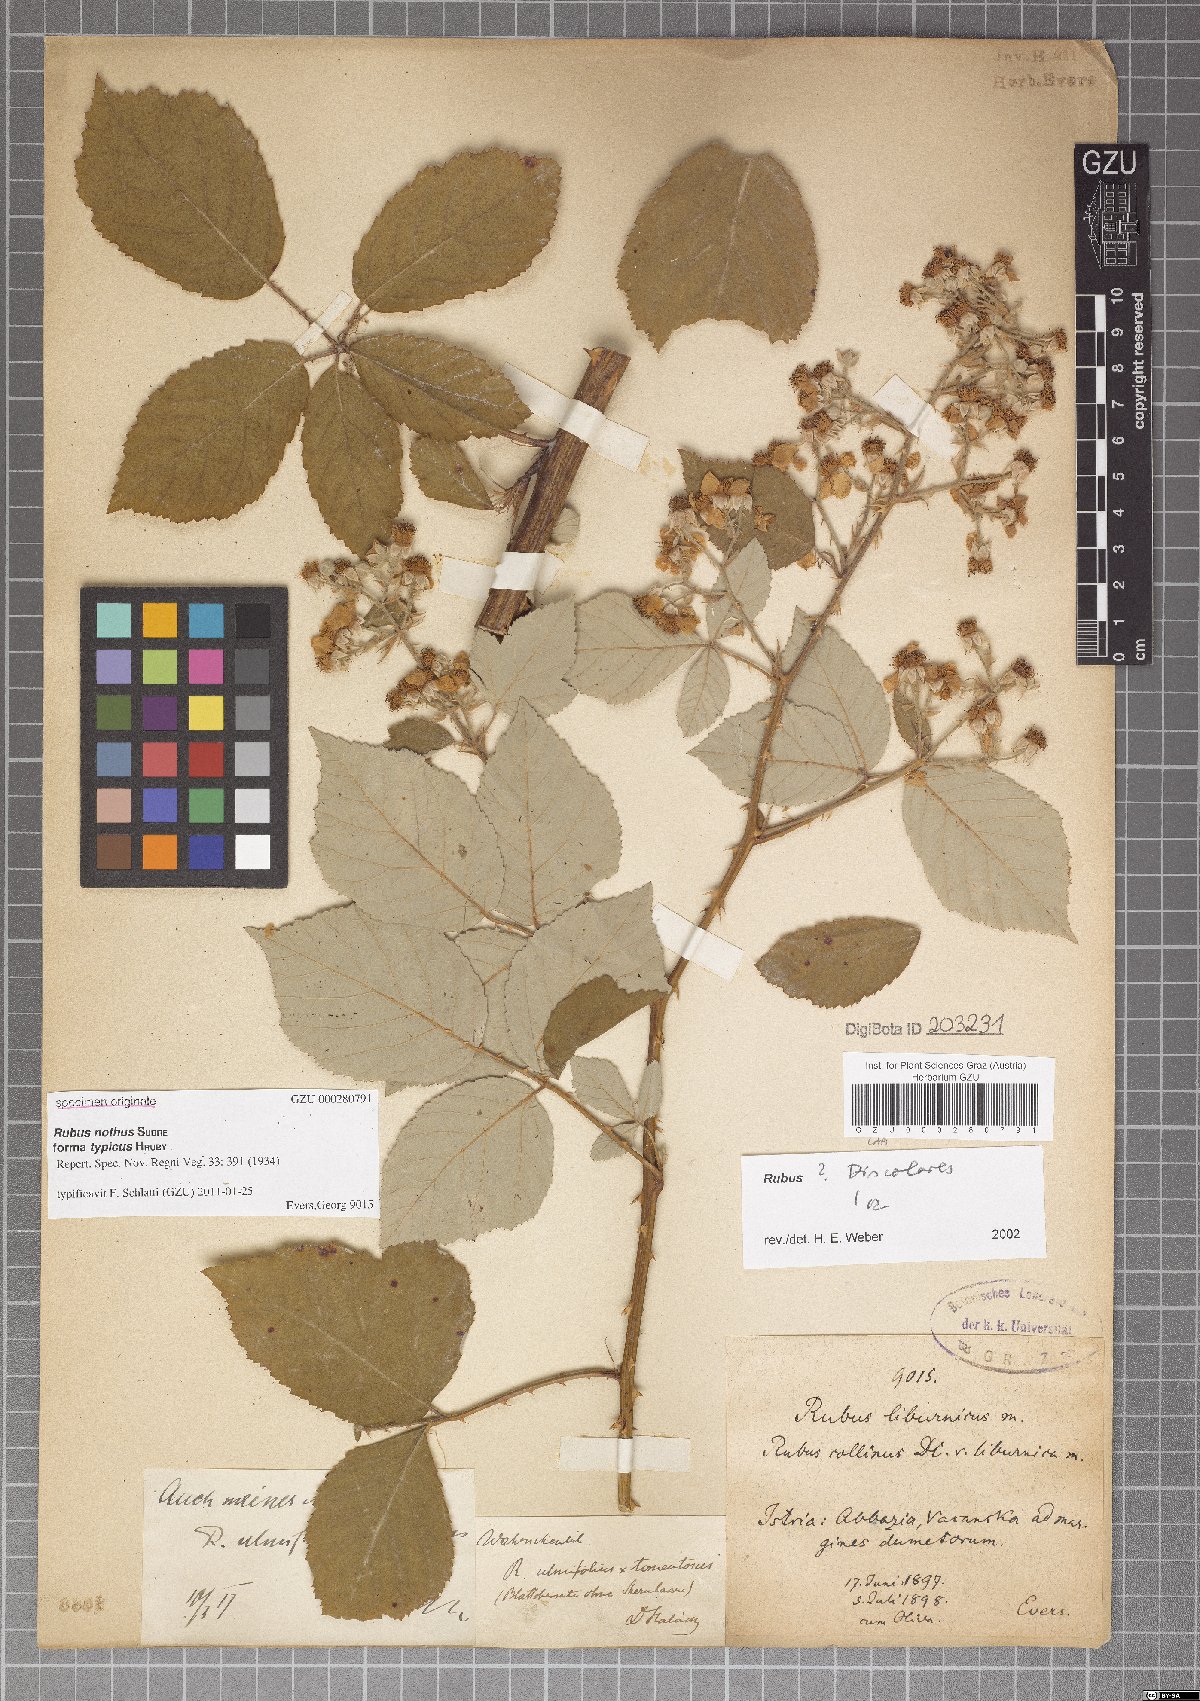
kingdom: Plantae
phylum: Tracheophyta
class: Magnoliopsida
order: Rosales
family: Rosaceae
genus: Rubus
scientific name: Rubus nothus
